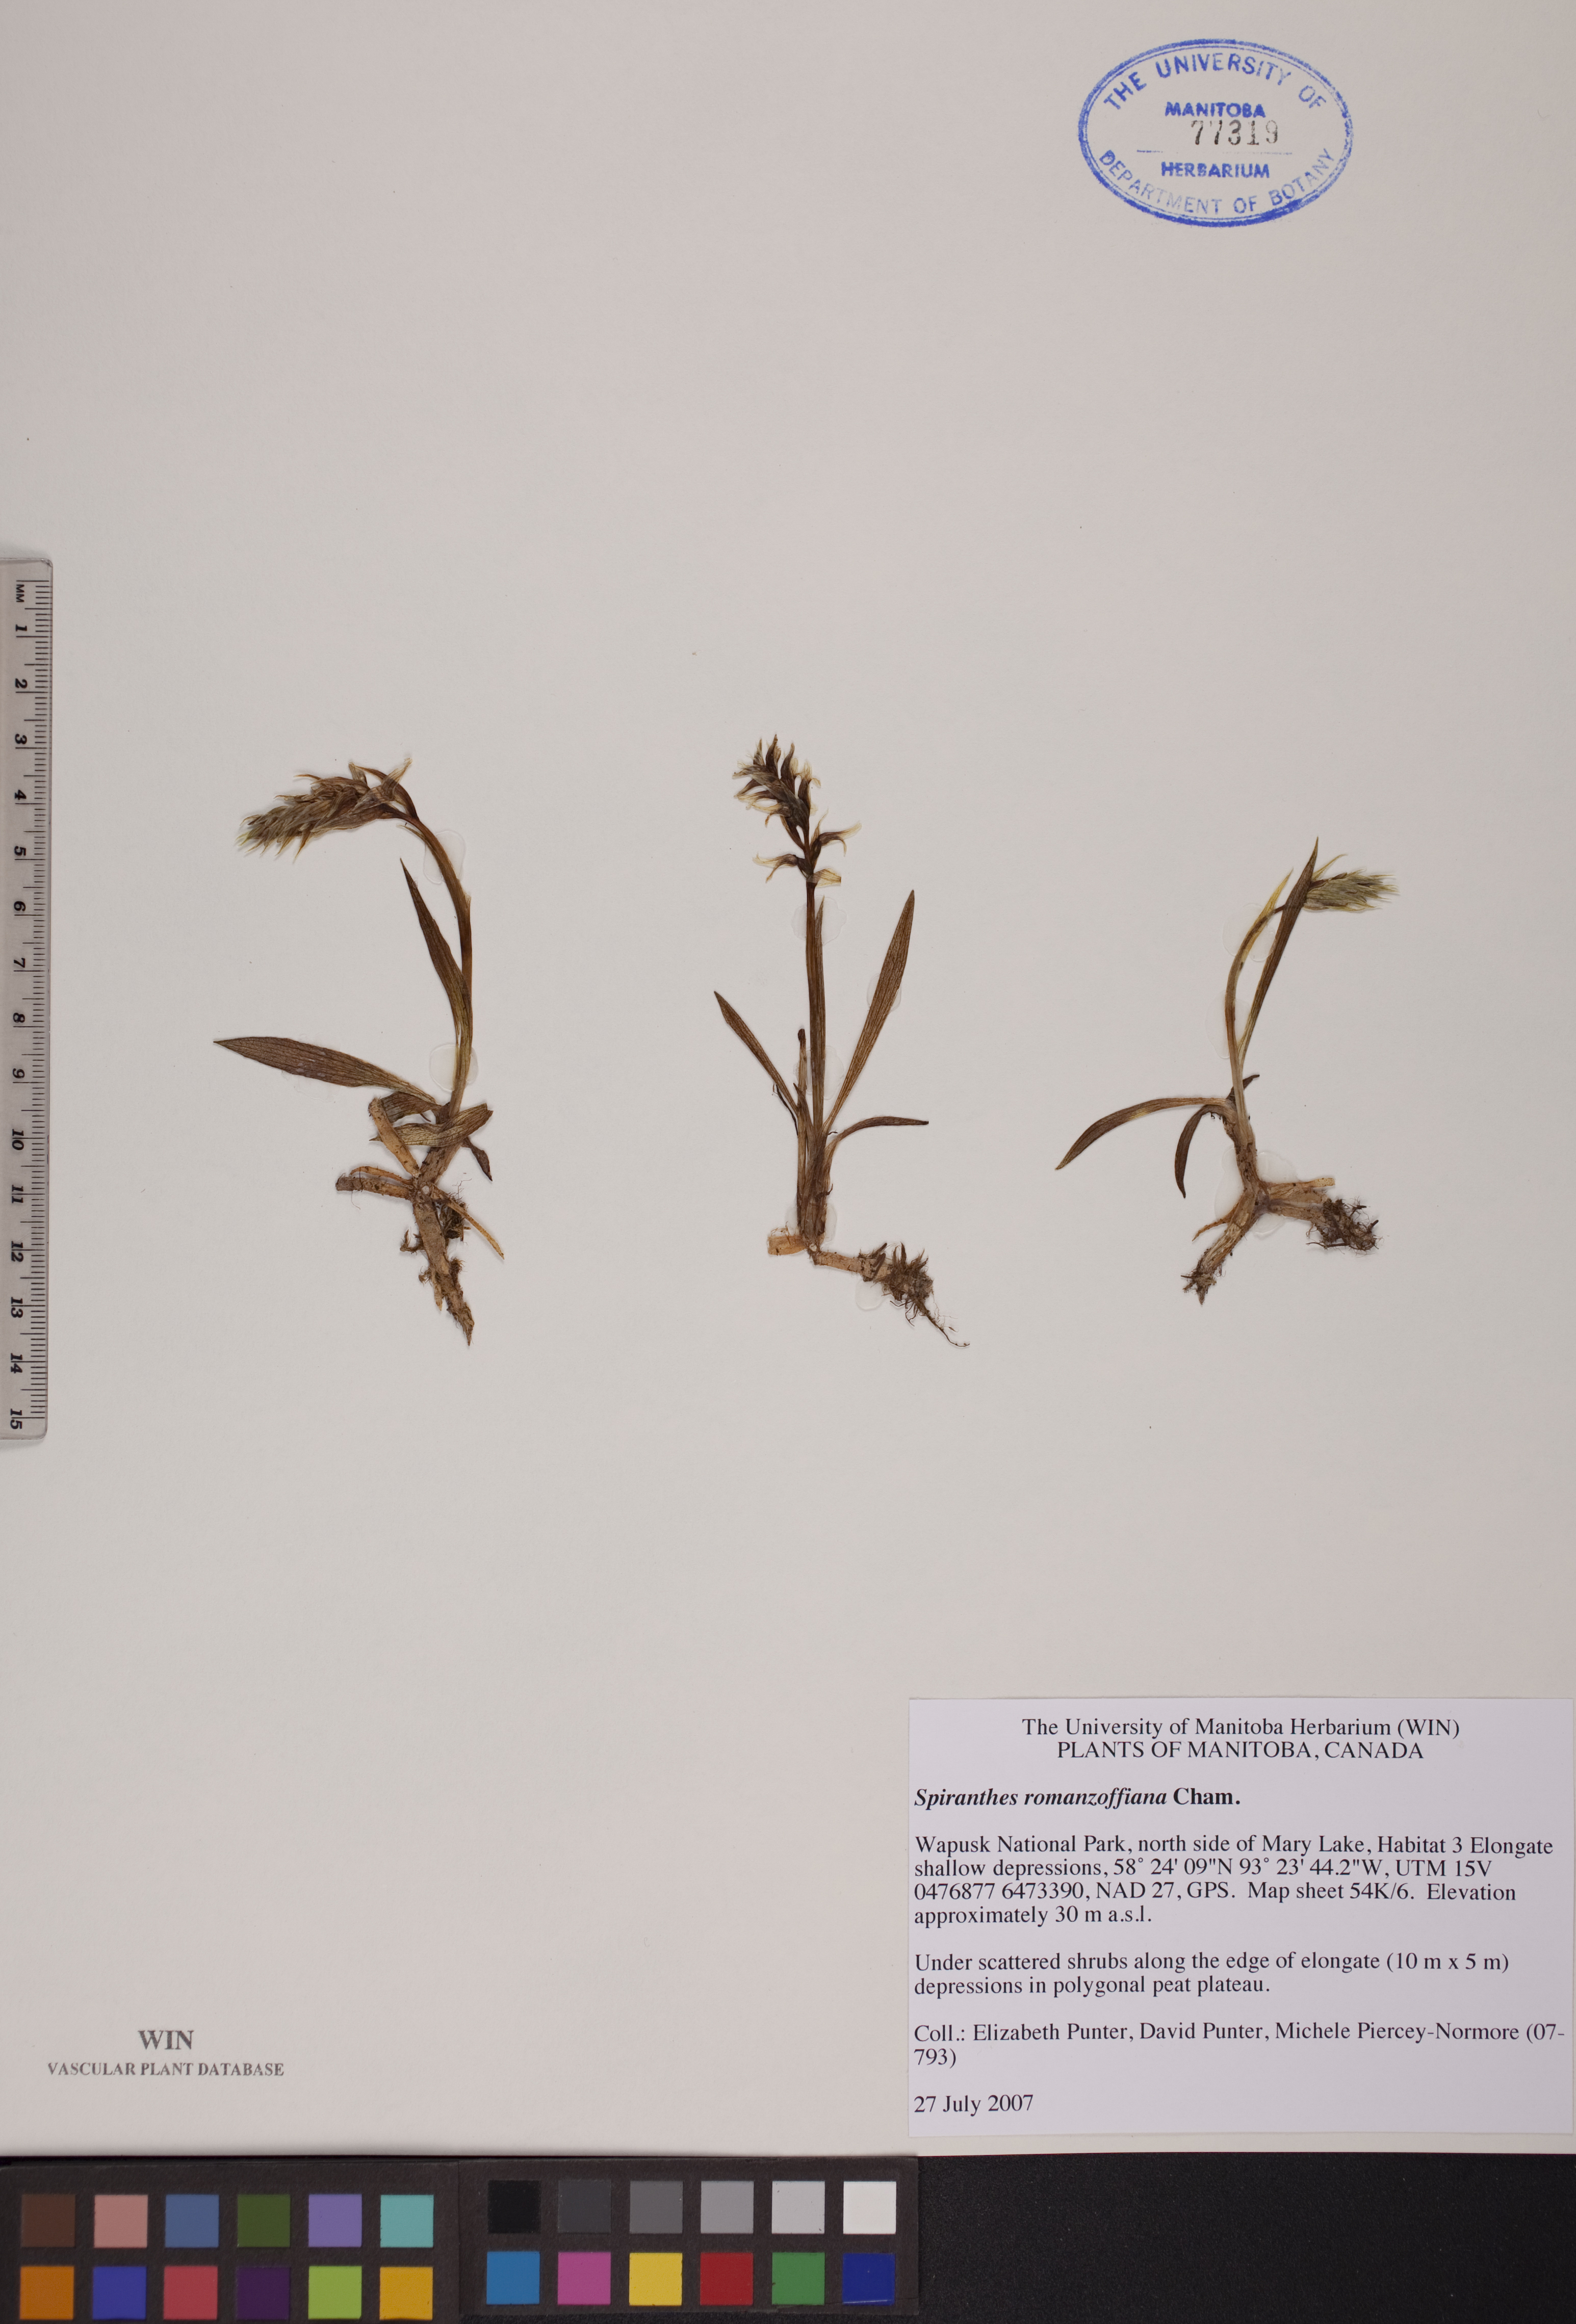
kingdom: Plantae
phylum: Tracheophyta
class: Liliopsida
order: Asparagales
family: Orchidaceae
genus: Spiranthes
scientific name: Spiranthes romanzoffiana
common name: Irish lady's-tresses
